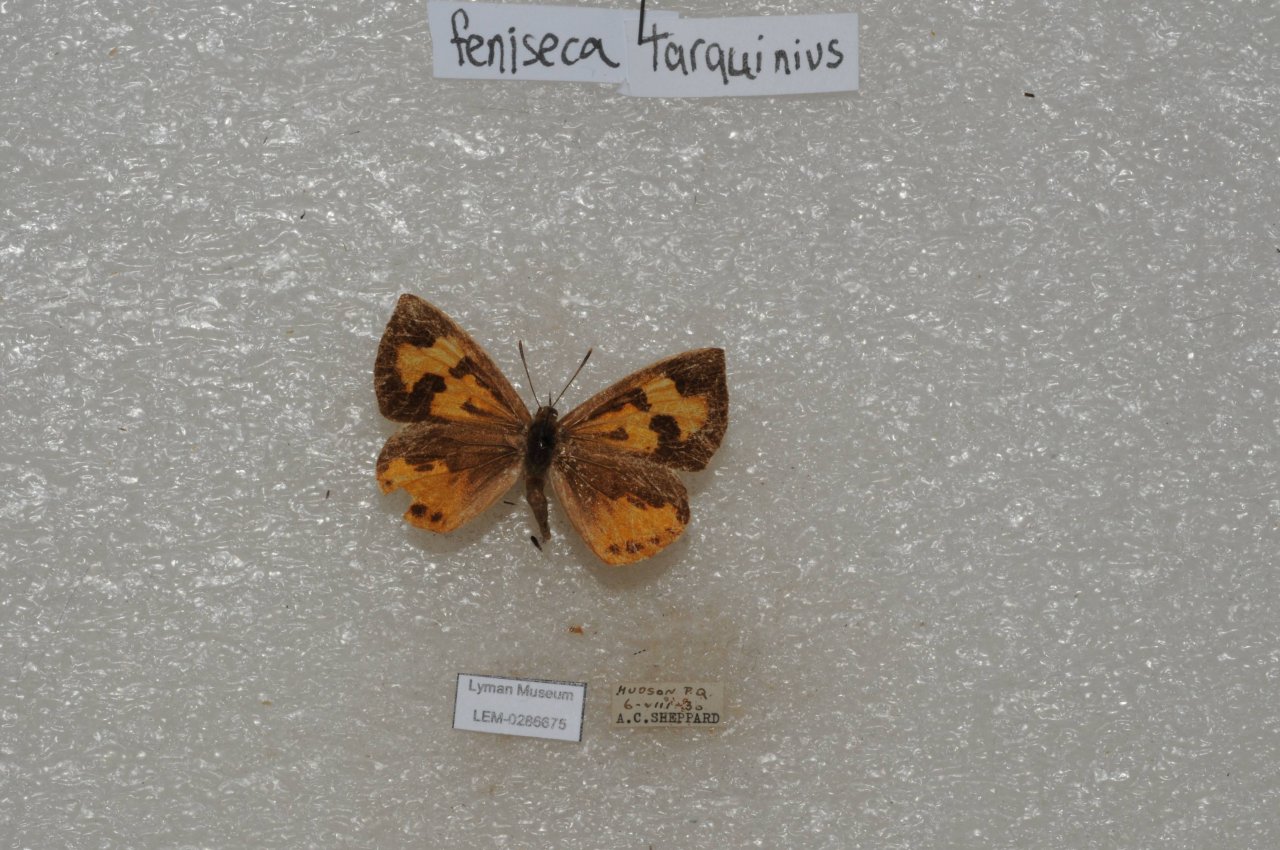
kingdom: Animalia
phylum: Arthropoda
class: Insecta
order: Lepidoptera
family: Lycaenidae
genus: Feniseca
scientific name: Feniseca tarquinius
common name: Harvester
